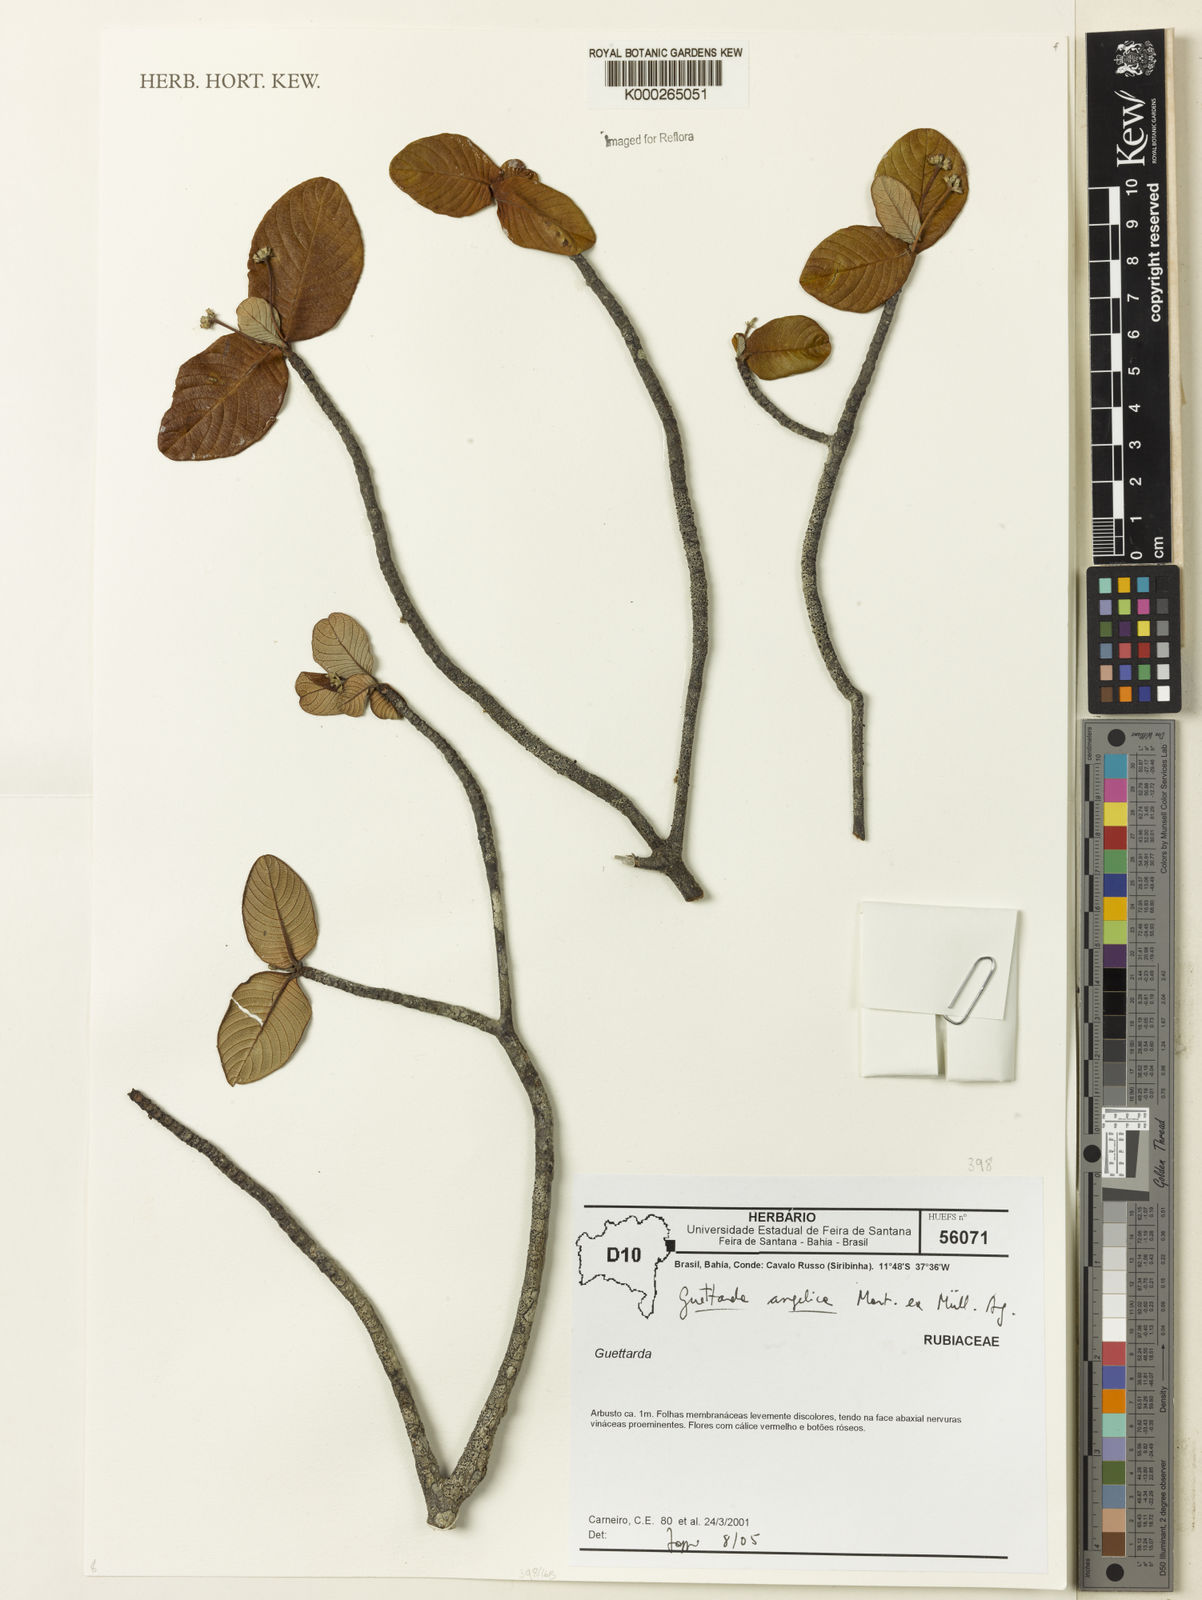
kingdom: Plantae
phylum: Tracheophyta
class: Magnoliopsida
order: Gentianales
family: Rubiaceae
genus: Guettarda
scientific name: Guettarda
